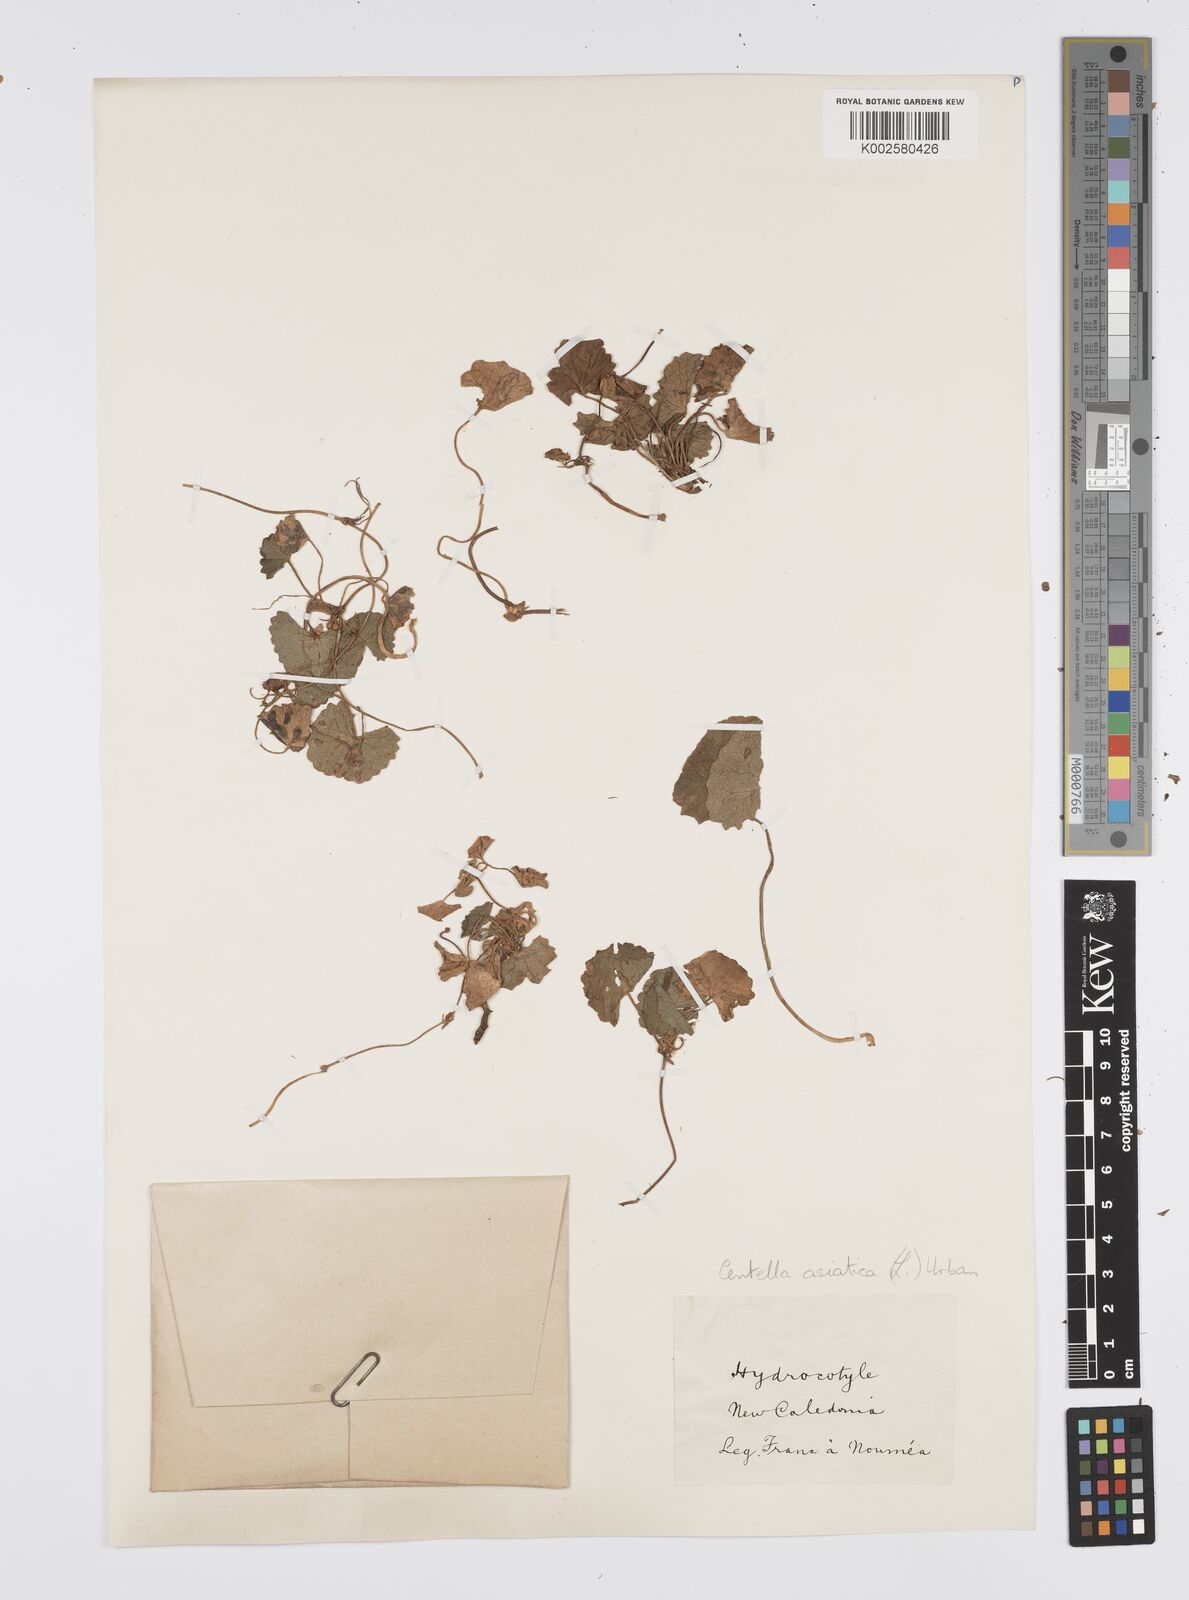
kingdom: Plantae
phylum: Tracheophyta
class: Magnoliopsida
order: Apiales
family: Apiaceae
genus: Centella
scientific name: Centella asiatica
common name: Spadeleaf
